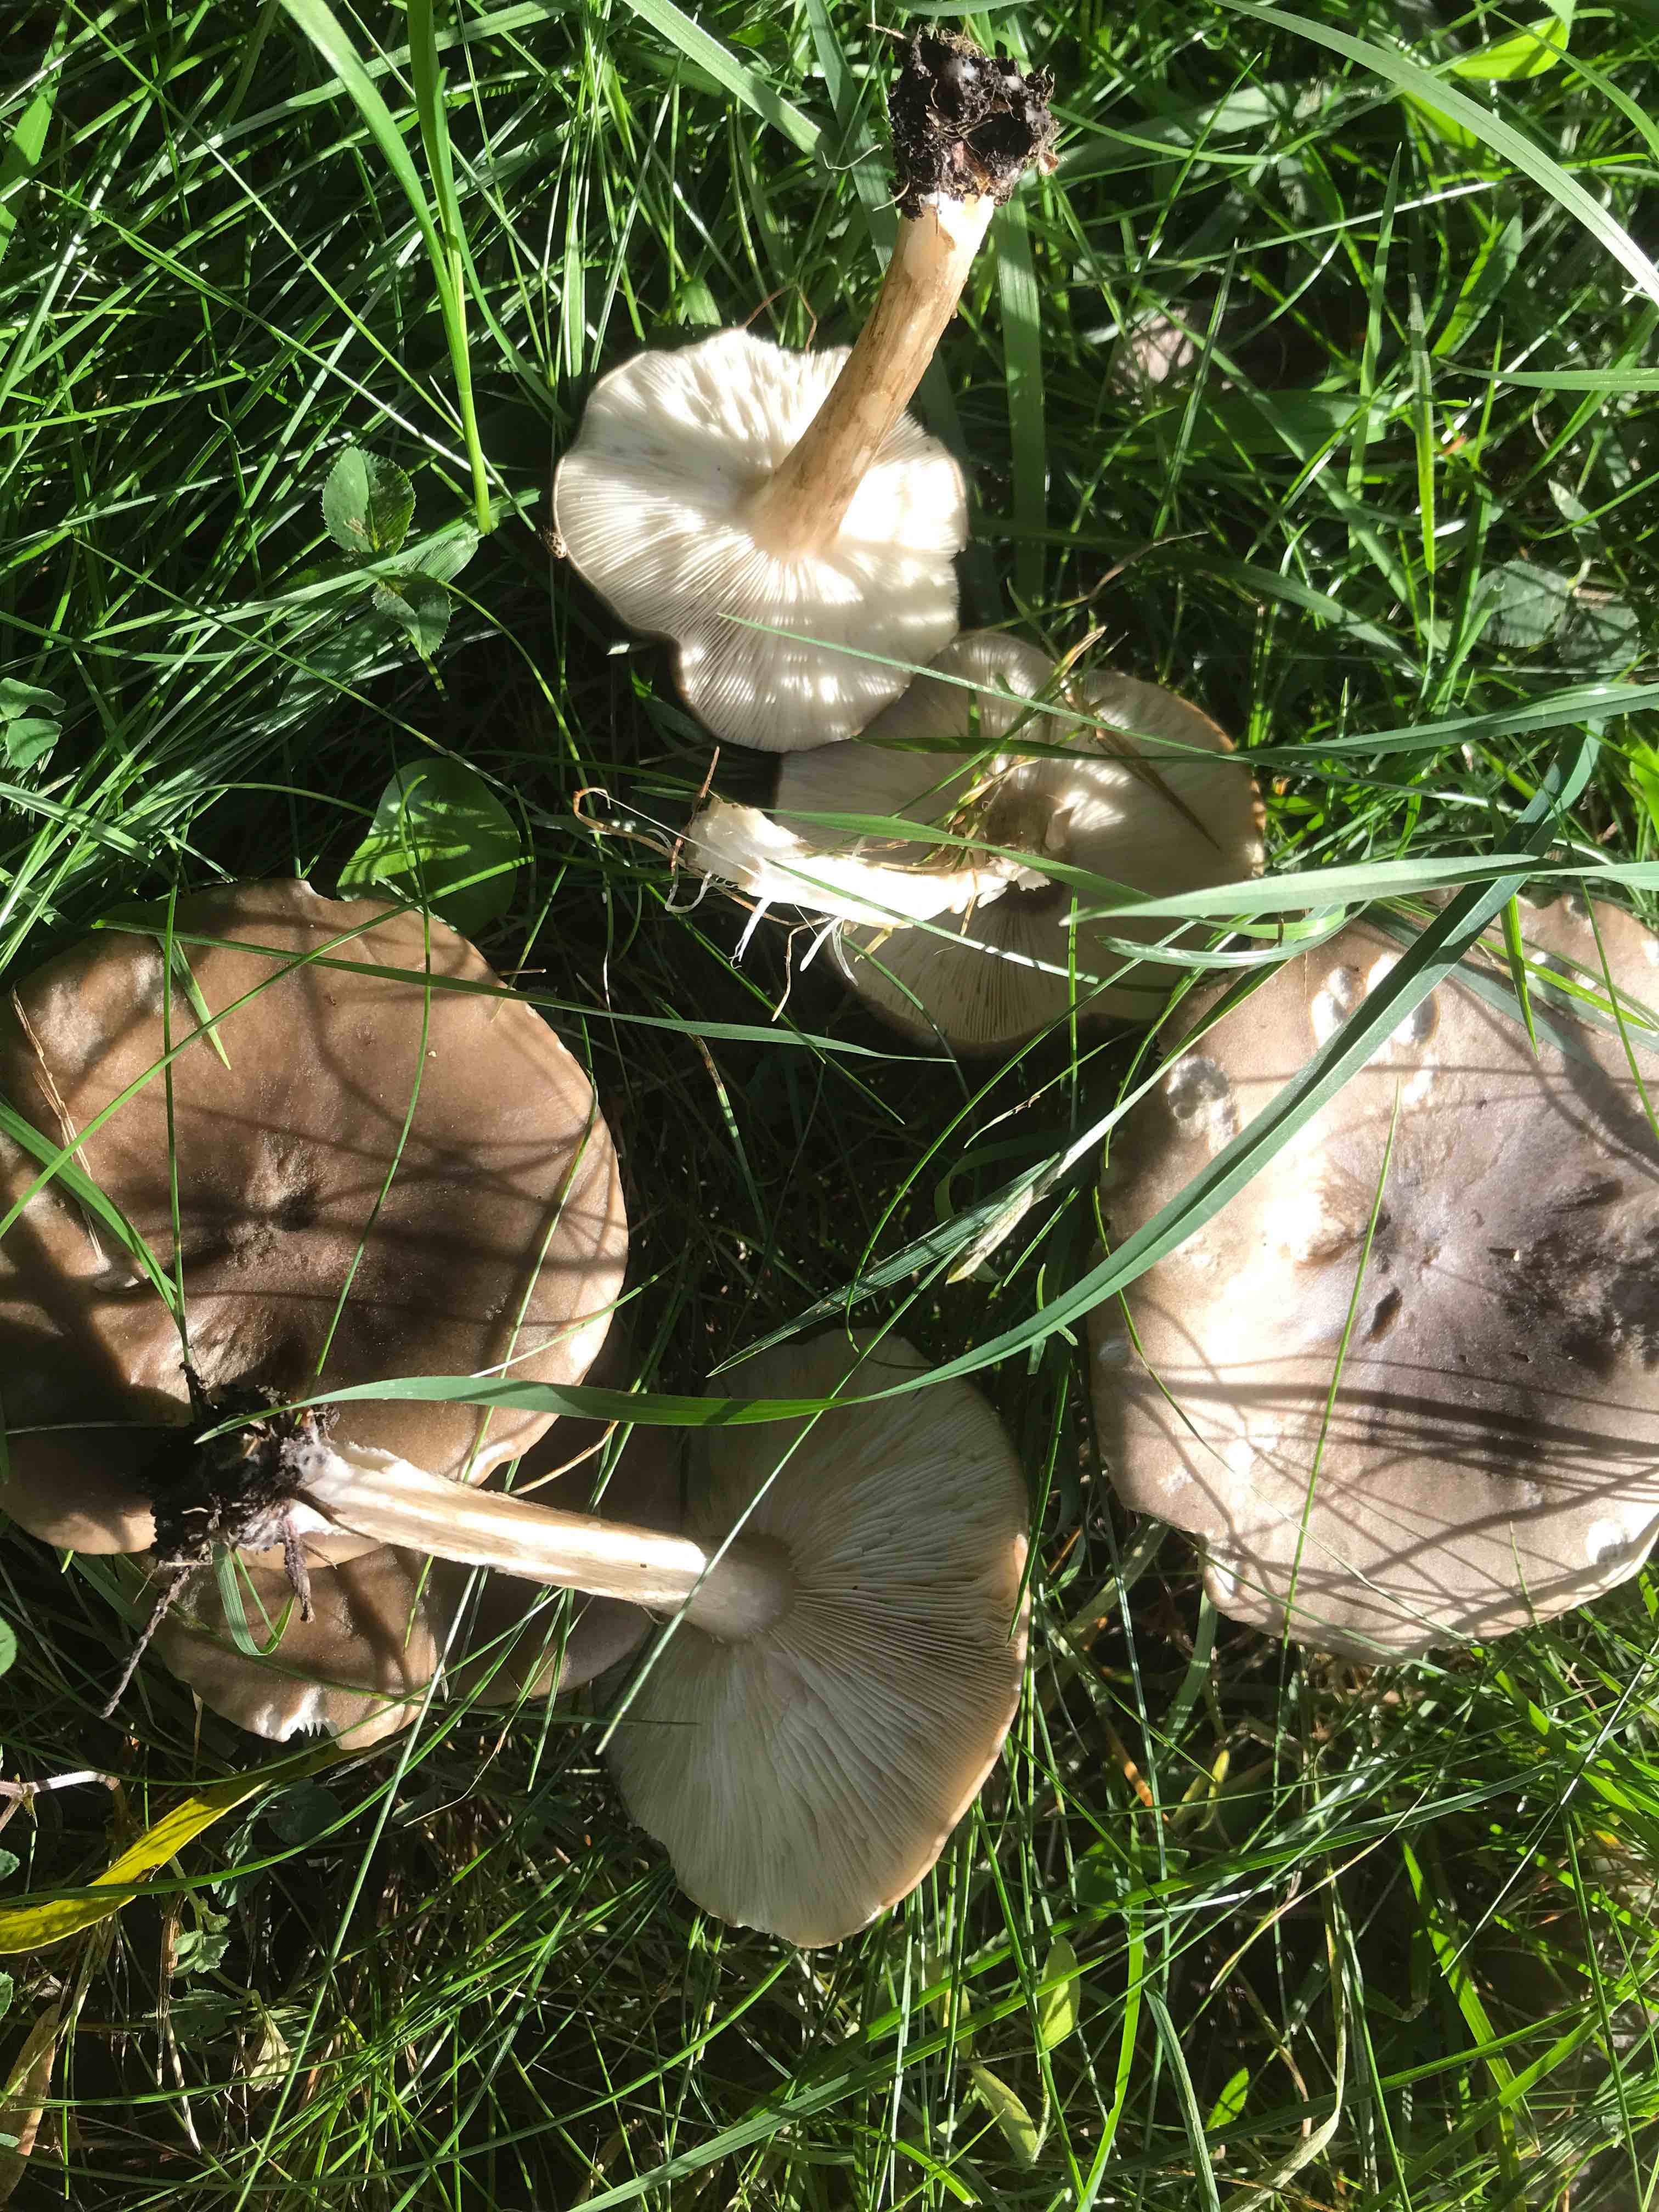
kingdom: Fungi
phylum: Basidiomycota
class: Agaricomycetes
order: Agaricales
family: Lyophyllaceae
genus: Lyophyllum
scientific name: Lyophyllum
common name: gråblad
